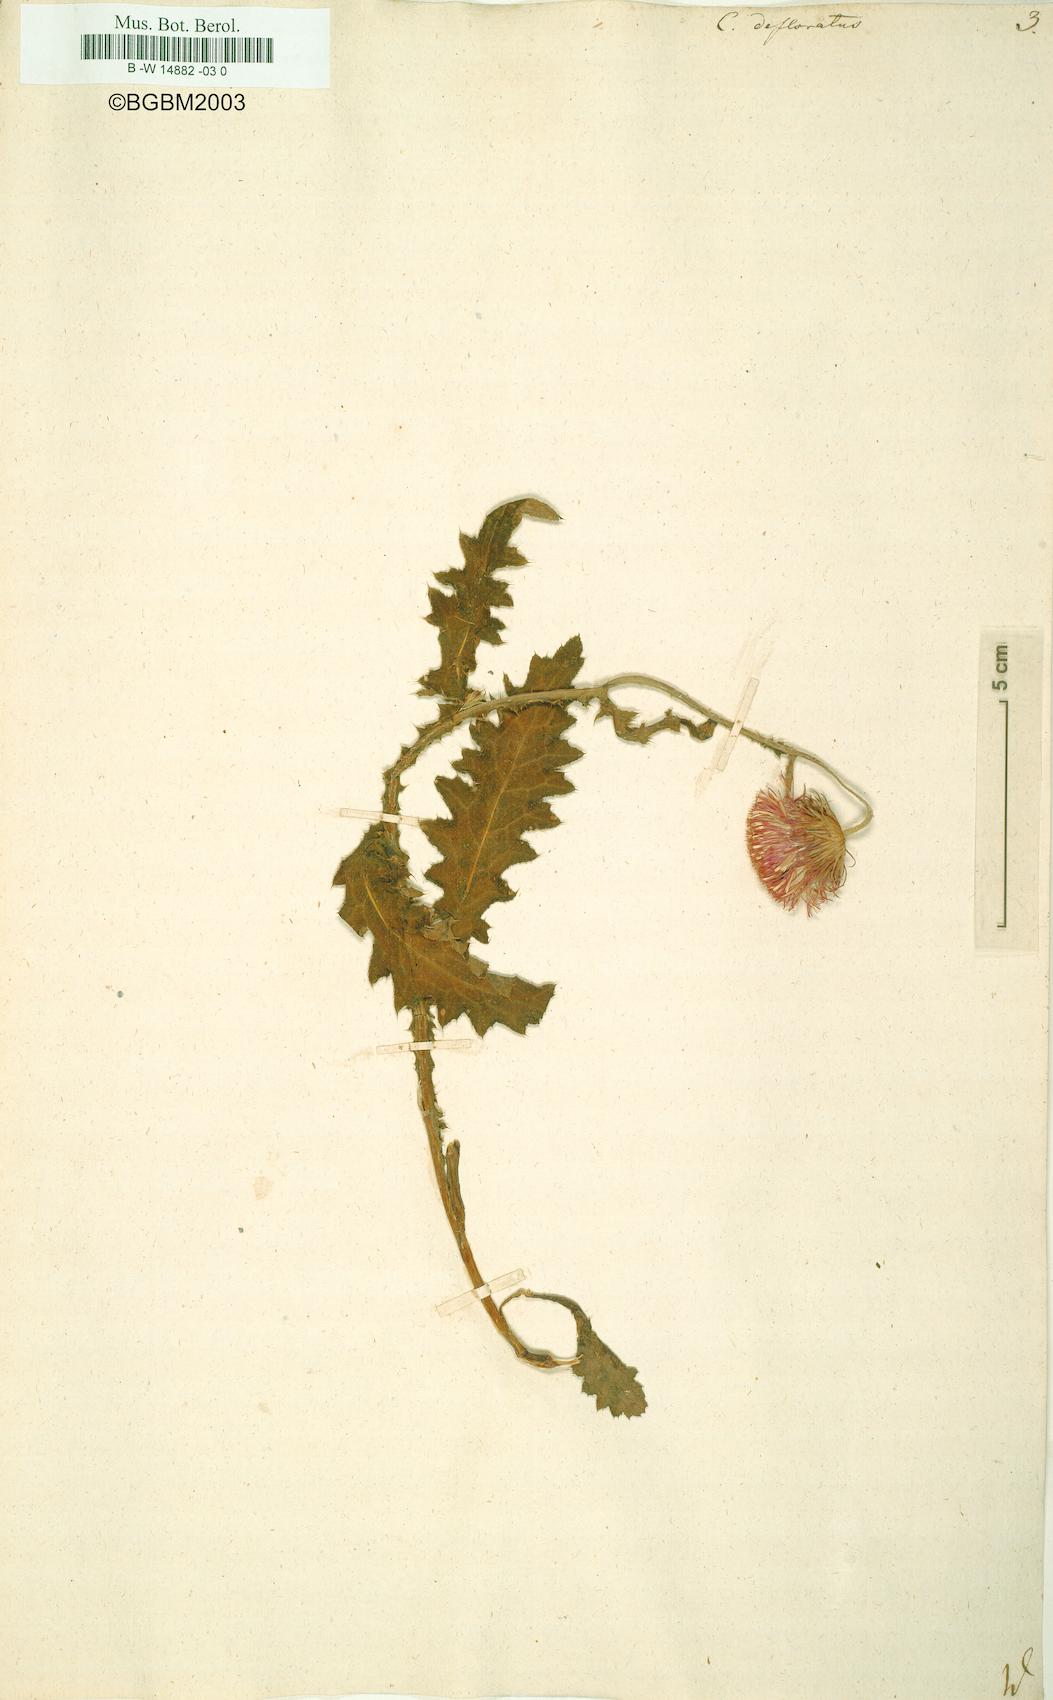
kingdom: Plantae
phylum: Tracheophyta
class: Magnoliopsida
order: Asterales
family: Asteraceae
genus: Carduus
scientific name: Carduus defloratus
